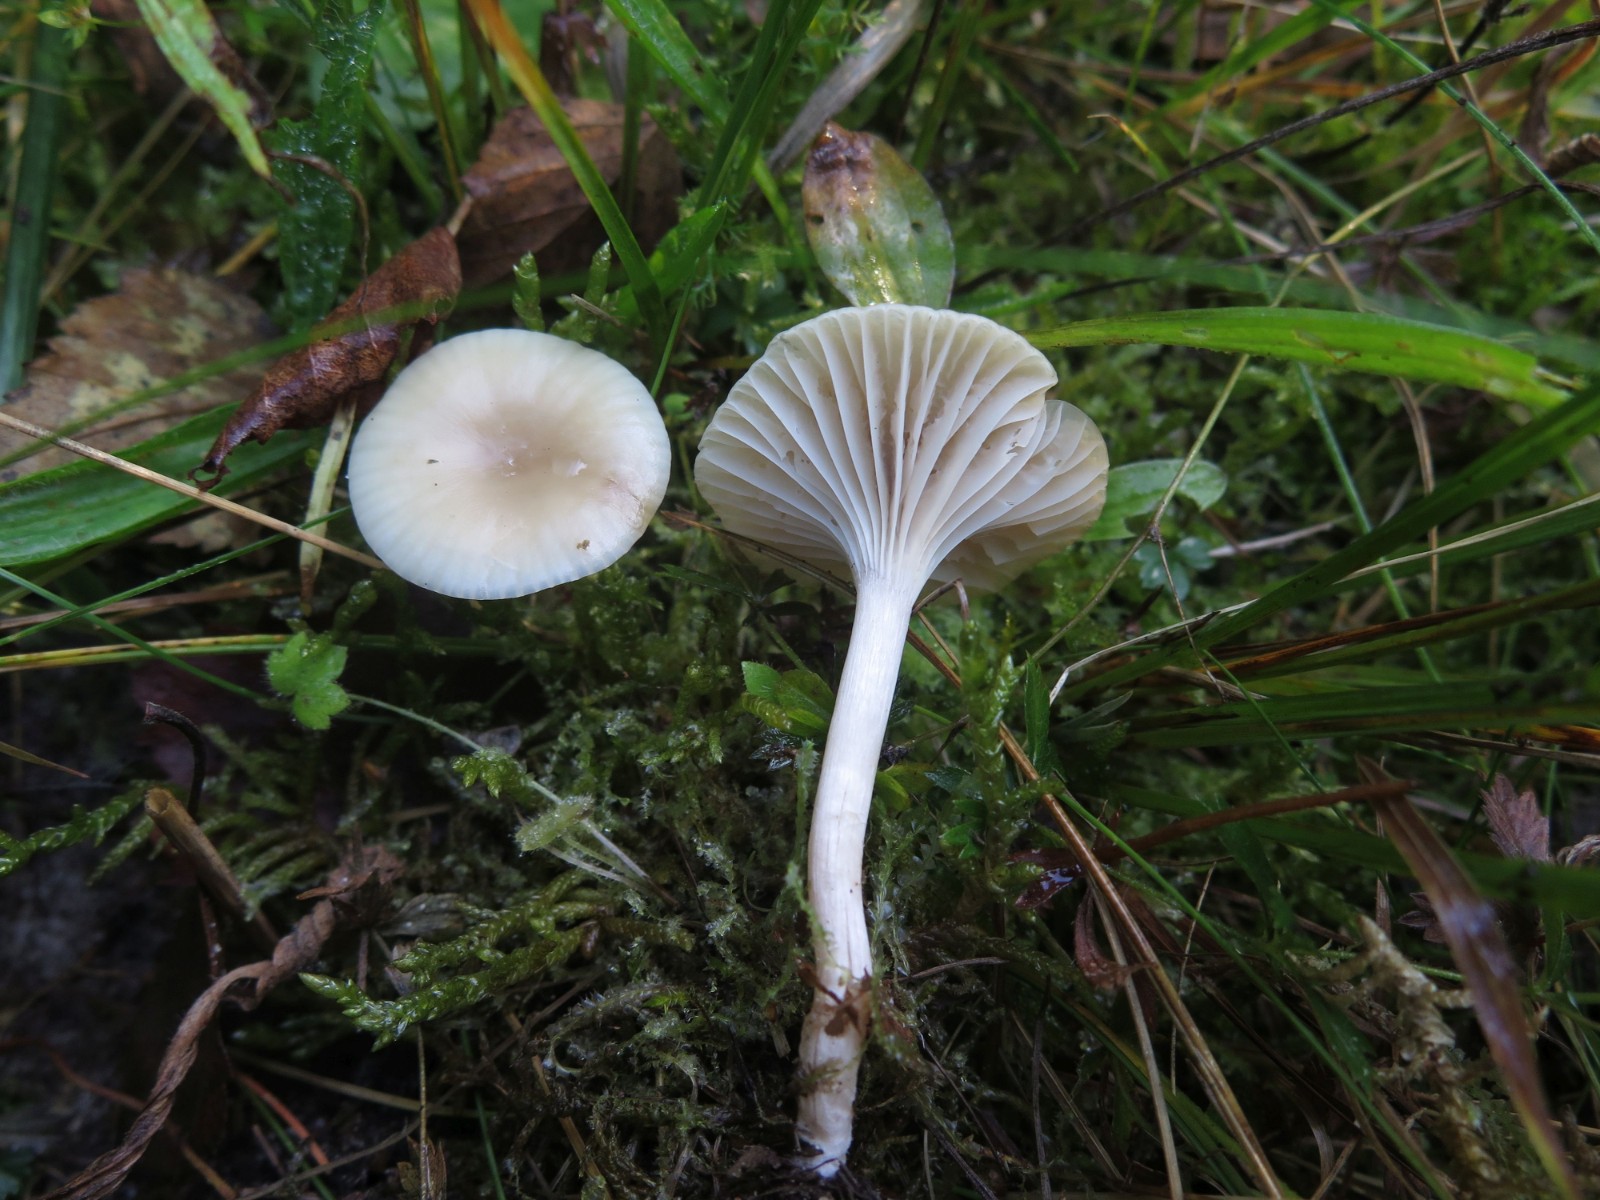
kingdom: Fungi
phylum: Basidiomycota
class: Agaricomycetes
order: Agaricales
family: Hygrophoraceae
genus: Cuphophyllus
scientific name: Cuphophyllus virgineus
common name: snehvid vokshat
